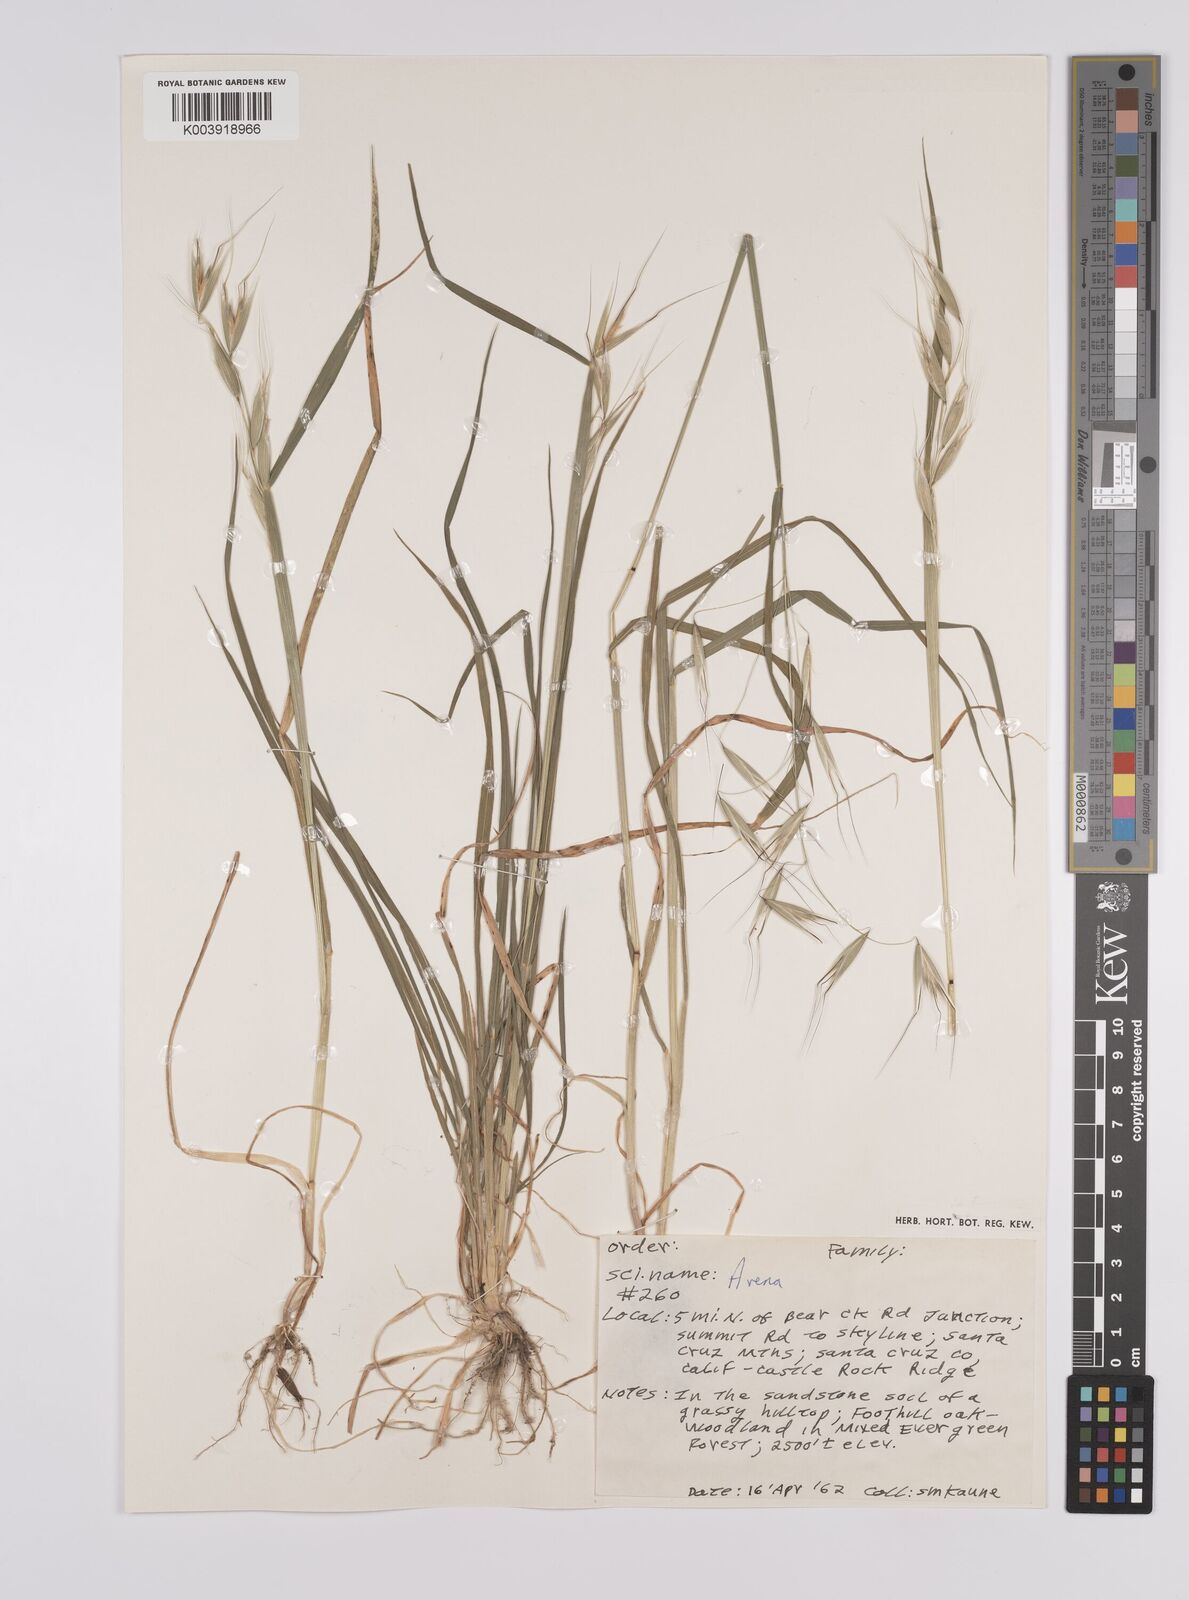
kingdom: Plantae
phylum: Tracheophyta
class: Liliopsida
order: Poales
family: Poaceae
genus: Avena
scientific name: Avena
